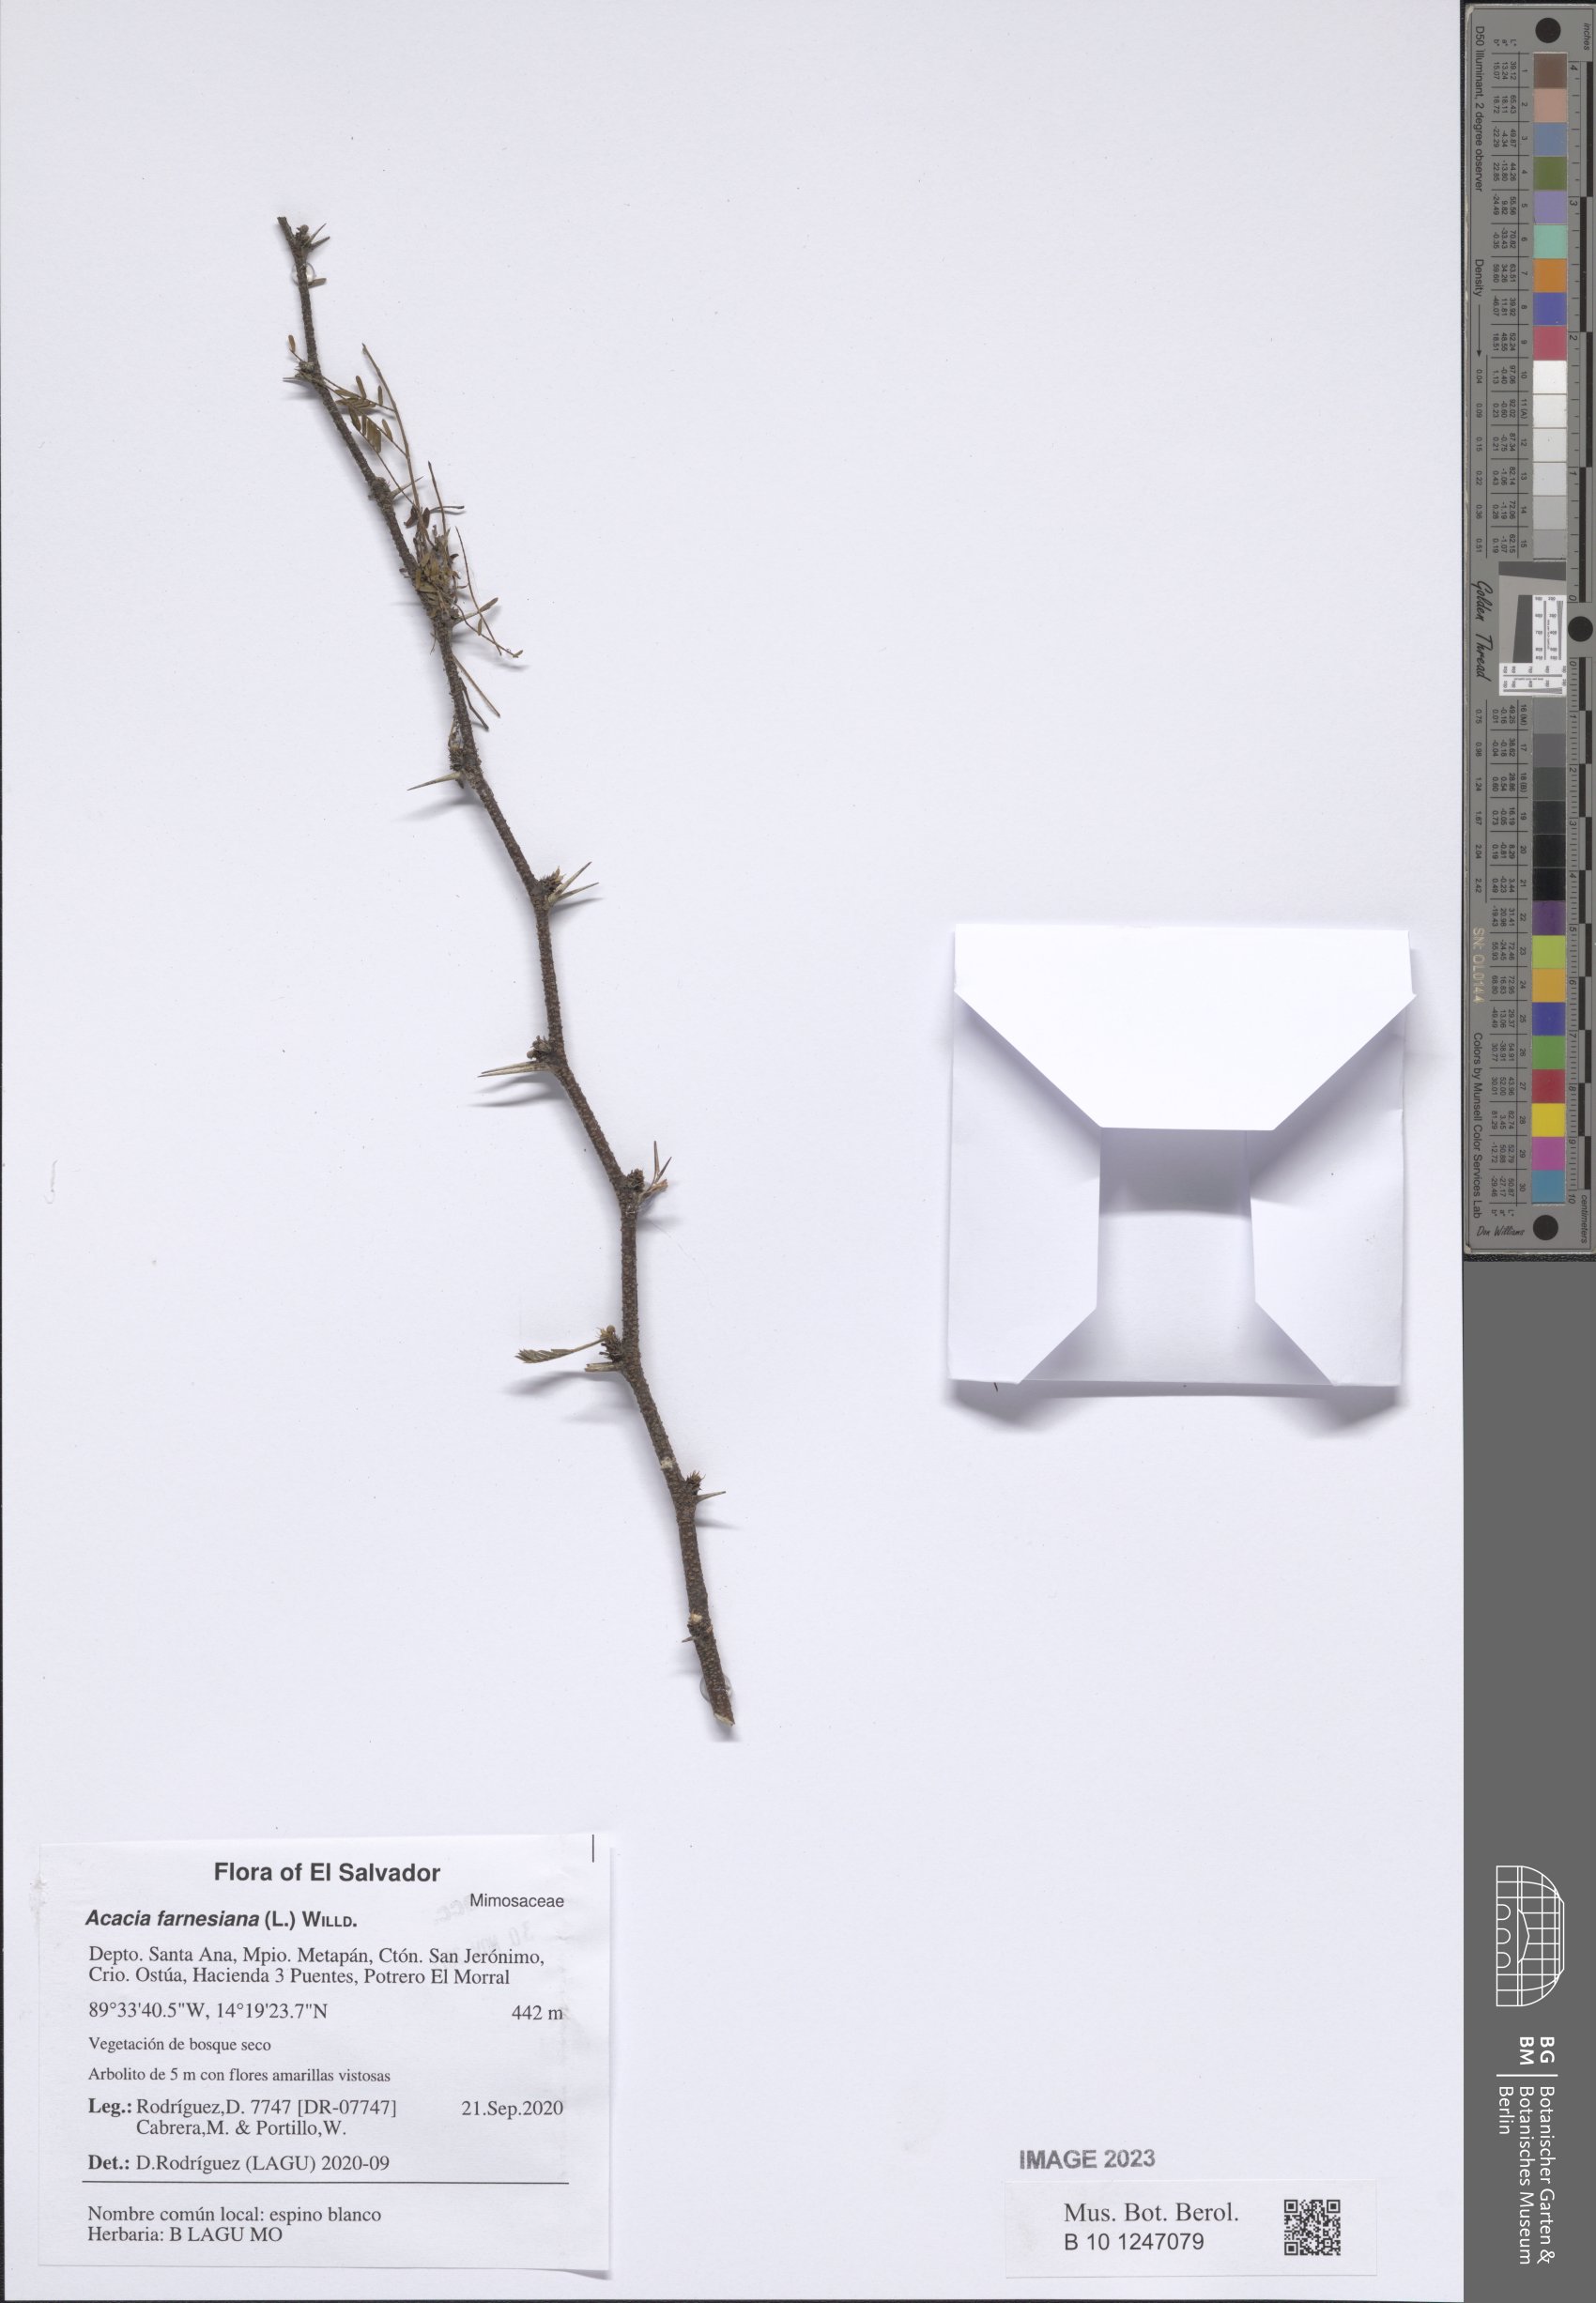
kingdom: Plantae
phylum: Tracheophyta
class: Magnoliopsida
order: Fabales
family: Fabaceae
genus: Vachellia
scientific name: Vachellia farnesiana
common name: Sweet acacia
